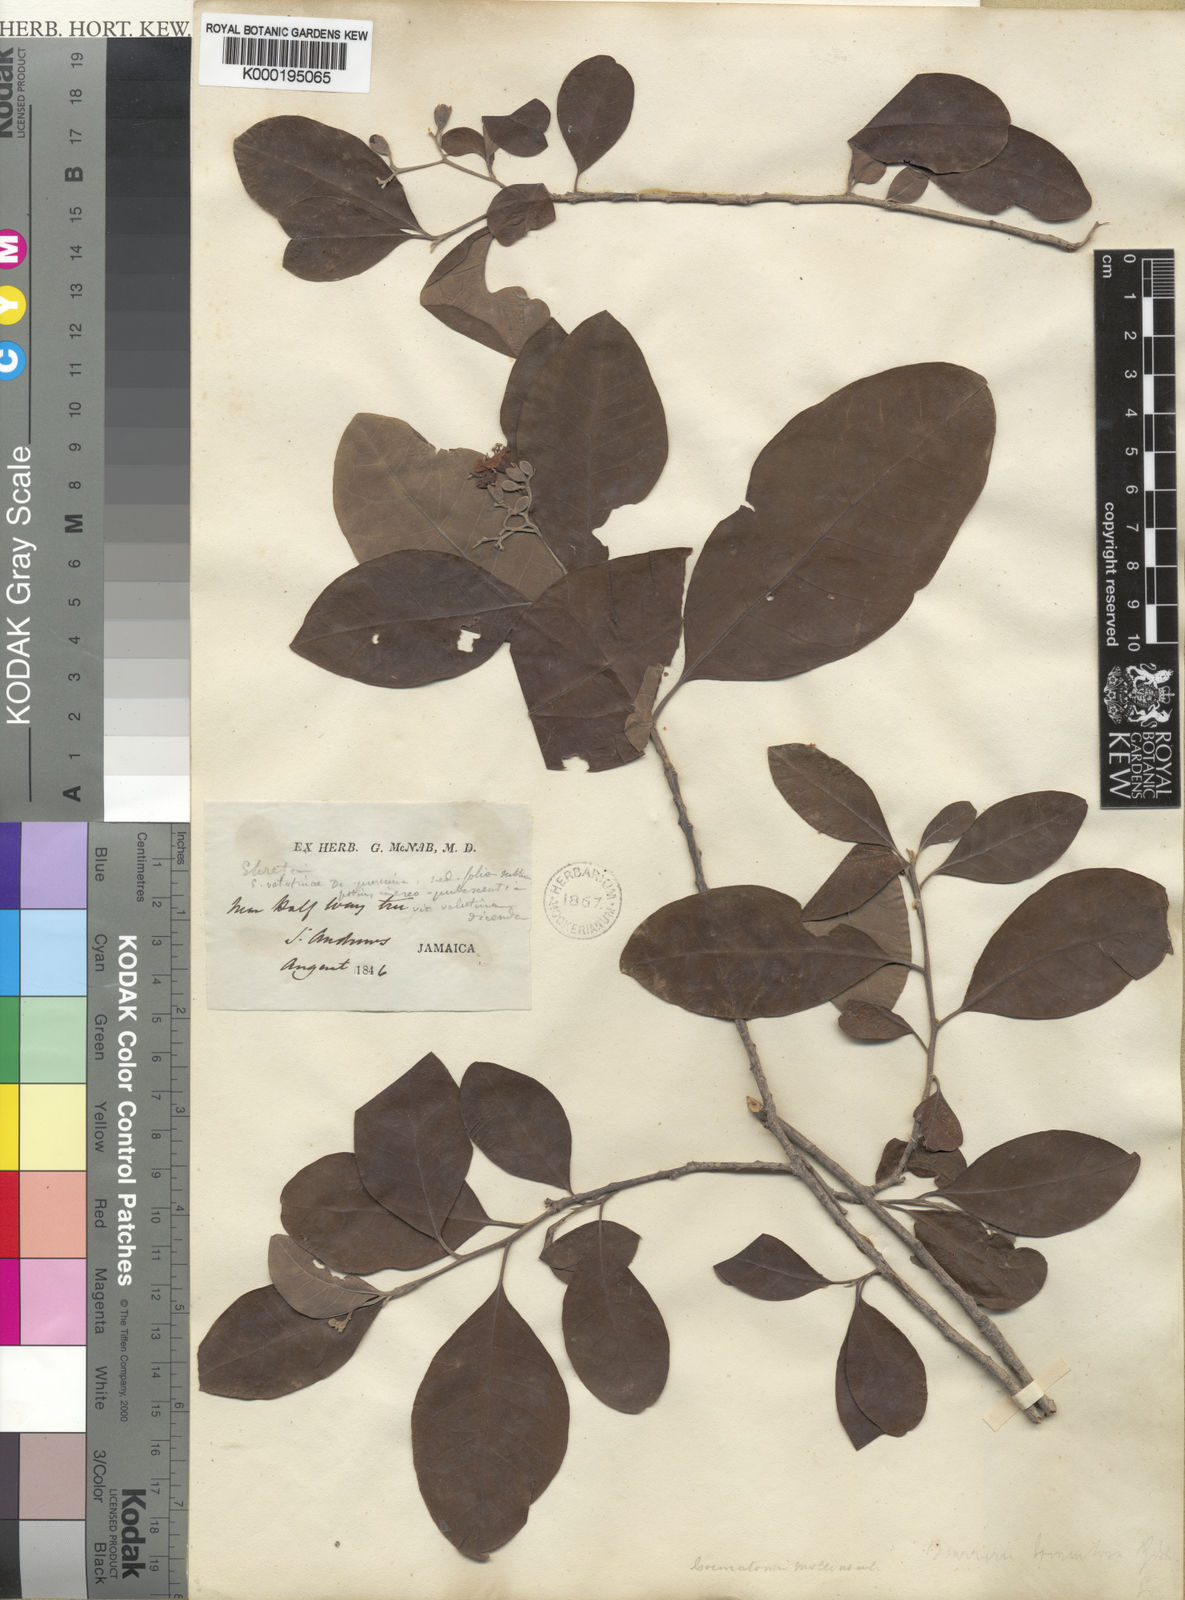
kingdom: Plantae
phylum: Tracheophyta
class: Magnoliopsida
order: Boraginales
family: Ehretiaceae
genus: Bourreria
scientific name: Bourreria succulenta
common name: Cherry
